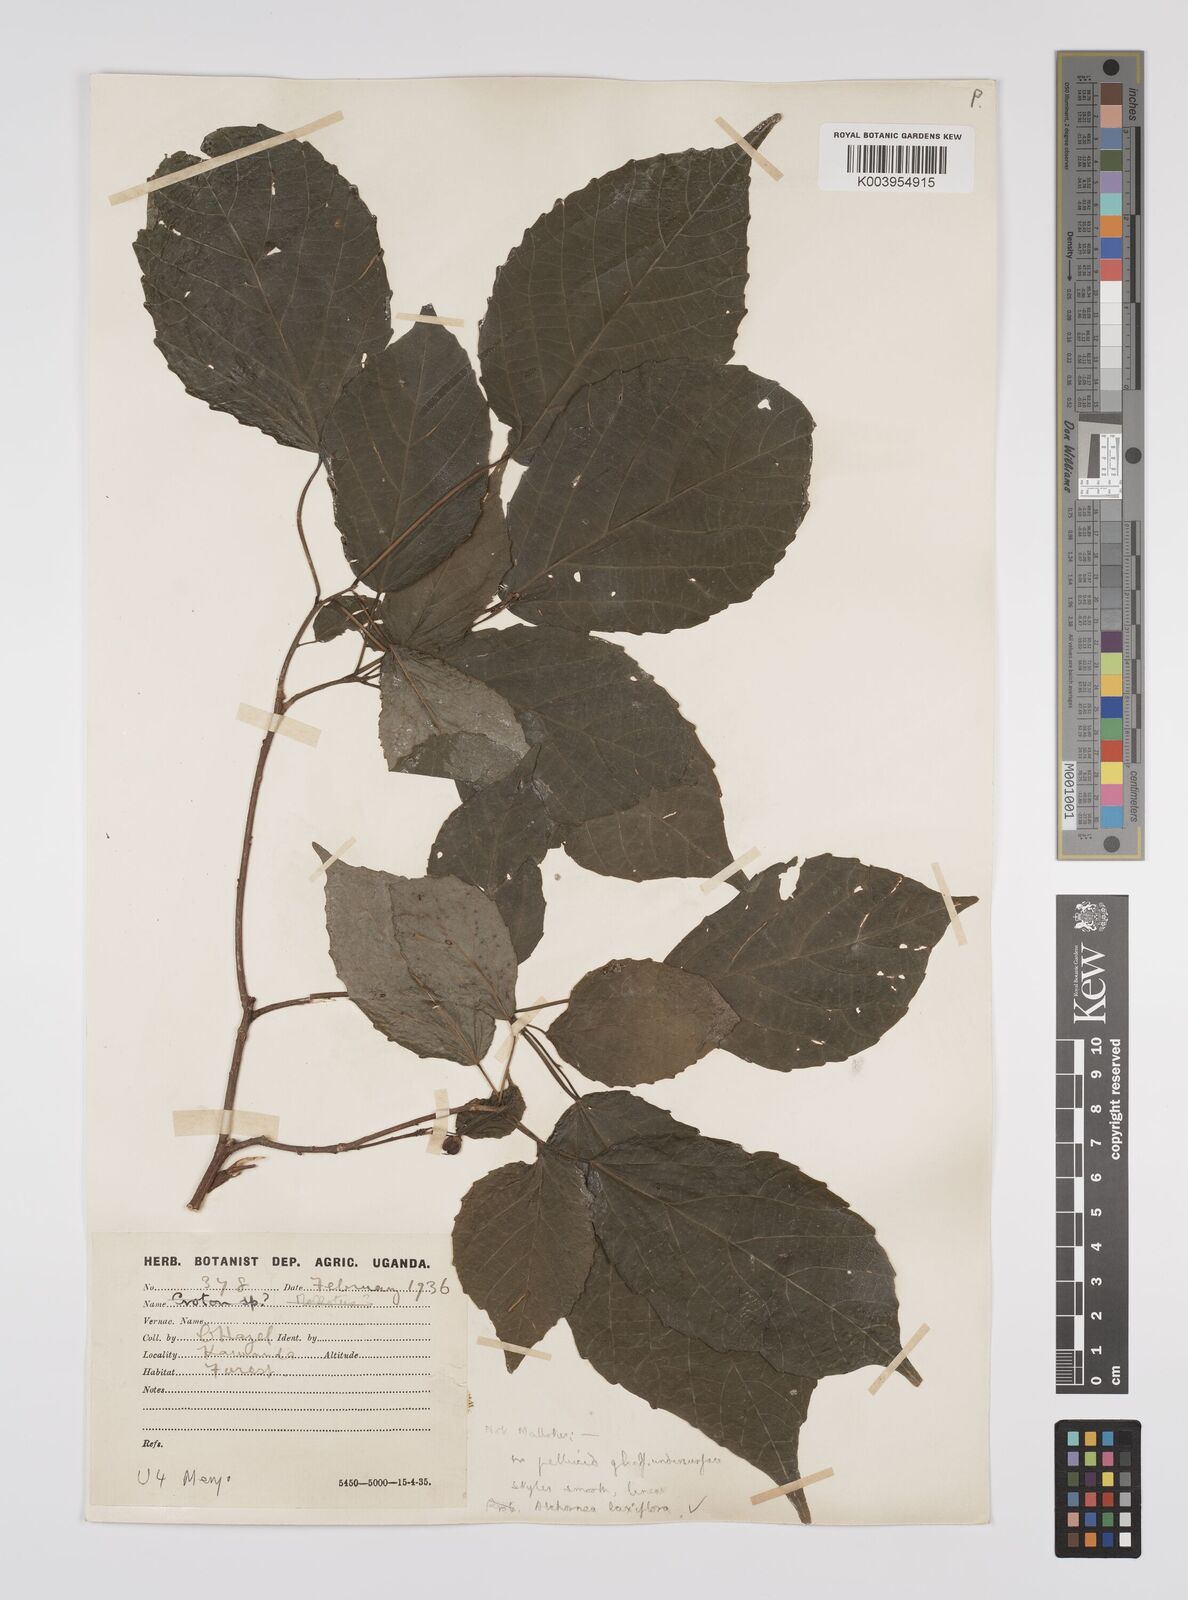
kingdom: Plantae
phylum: Tracheophyta
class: Magnoliopsida
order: Malpighiales
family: Euphorbiaceae
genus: Alchornea
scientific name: Alchornea laxiflora
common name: Lowveld bead-string
